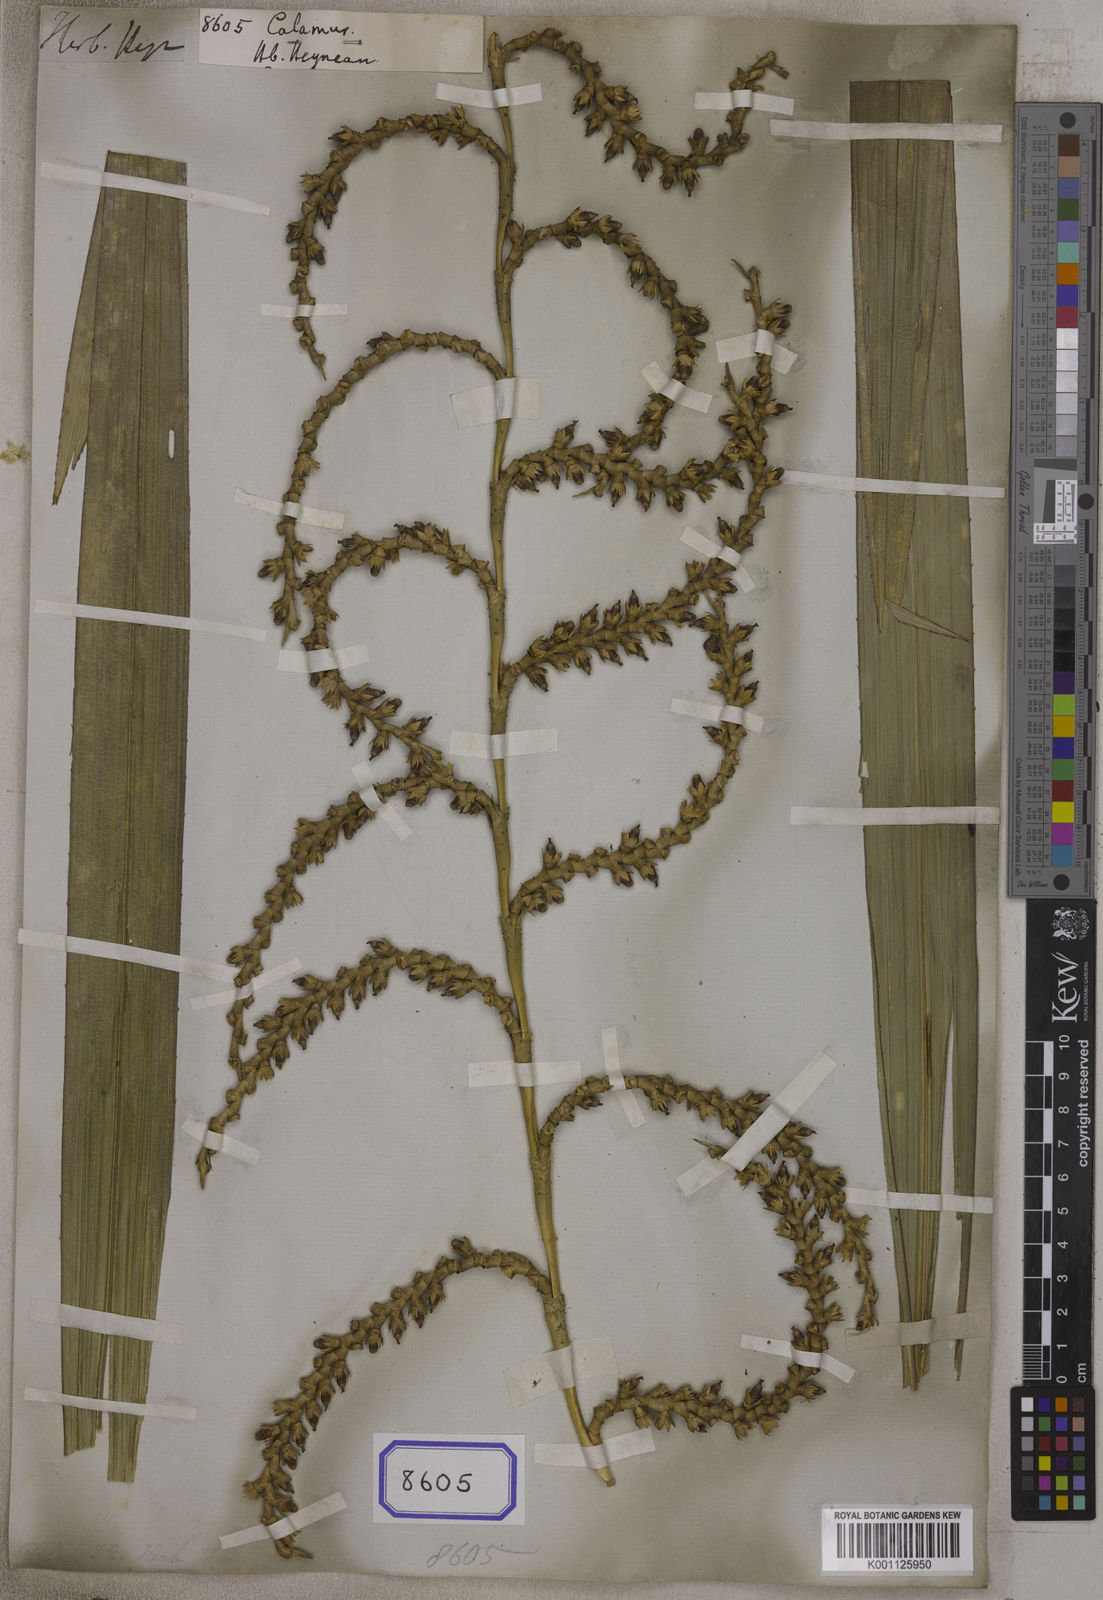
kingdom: Plantae
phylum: Tracheophyta
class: Liliopsida
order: Arecales
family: Arecaceae
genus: Calamus
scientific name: Calamus
